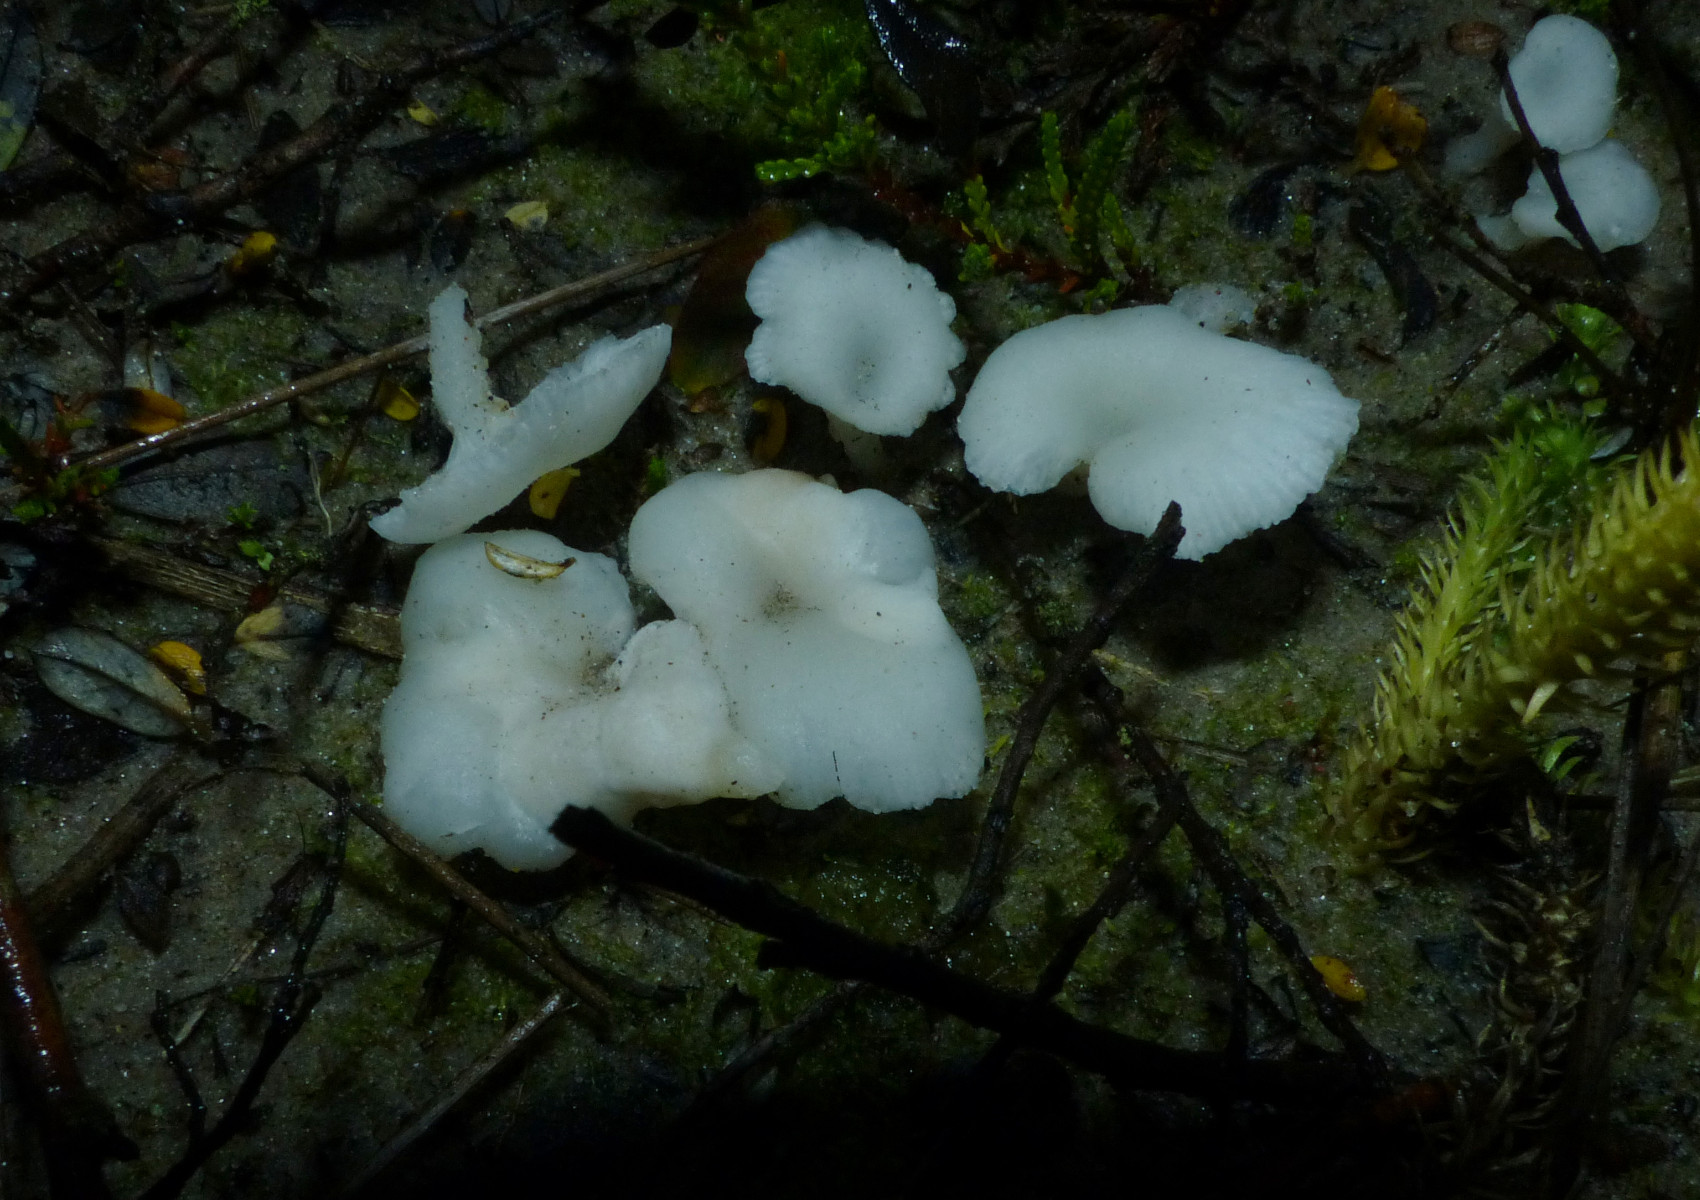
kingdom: Fungi
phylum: Basidiomycota
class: Agaricomycetes
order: Agaricales
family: Tricholomataceae
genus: Omphalina
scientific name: Omphalina mutila
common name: hvid navlehat
